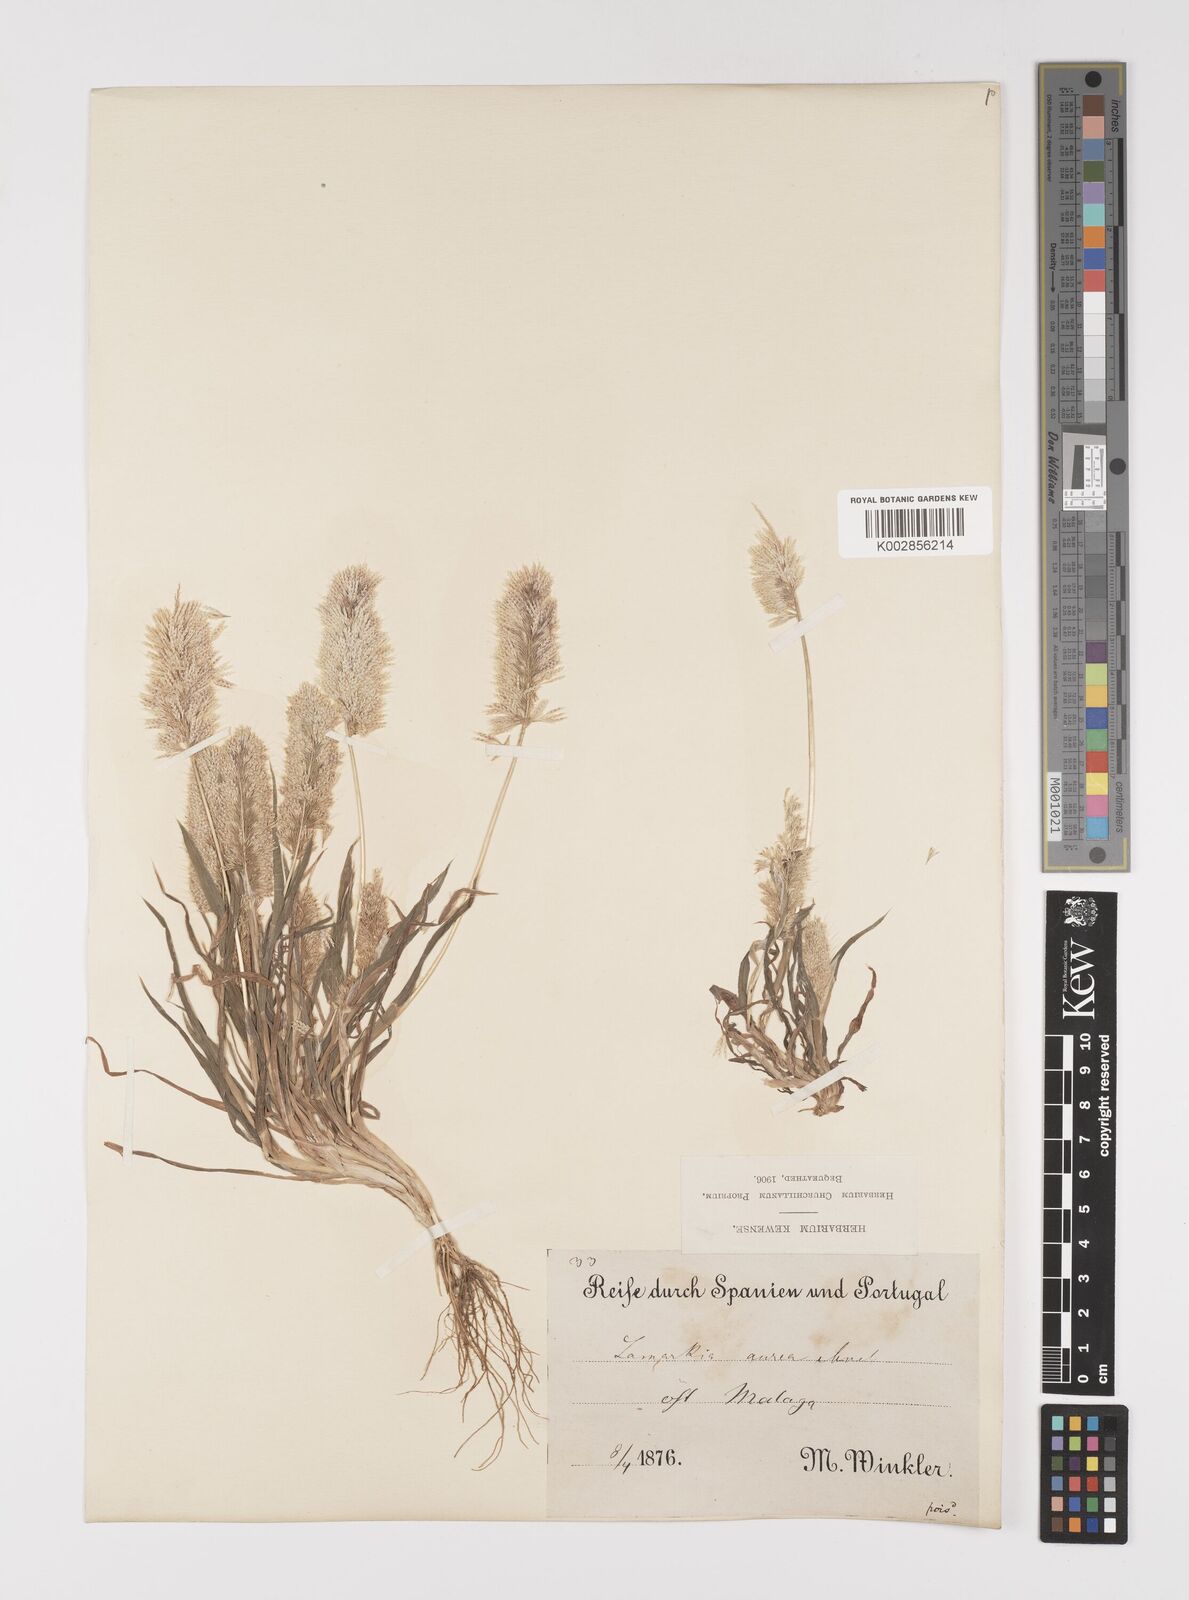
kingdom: Plantae
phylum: Tracheophyta
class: Liliopsida
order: Poales
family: Poaceae
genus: Lamarckia
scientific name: Lamarckia aurea
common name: Golden dog's-tail
